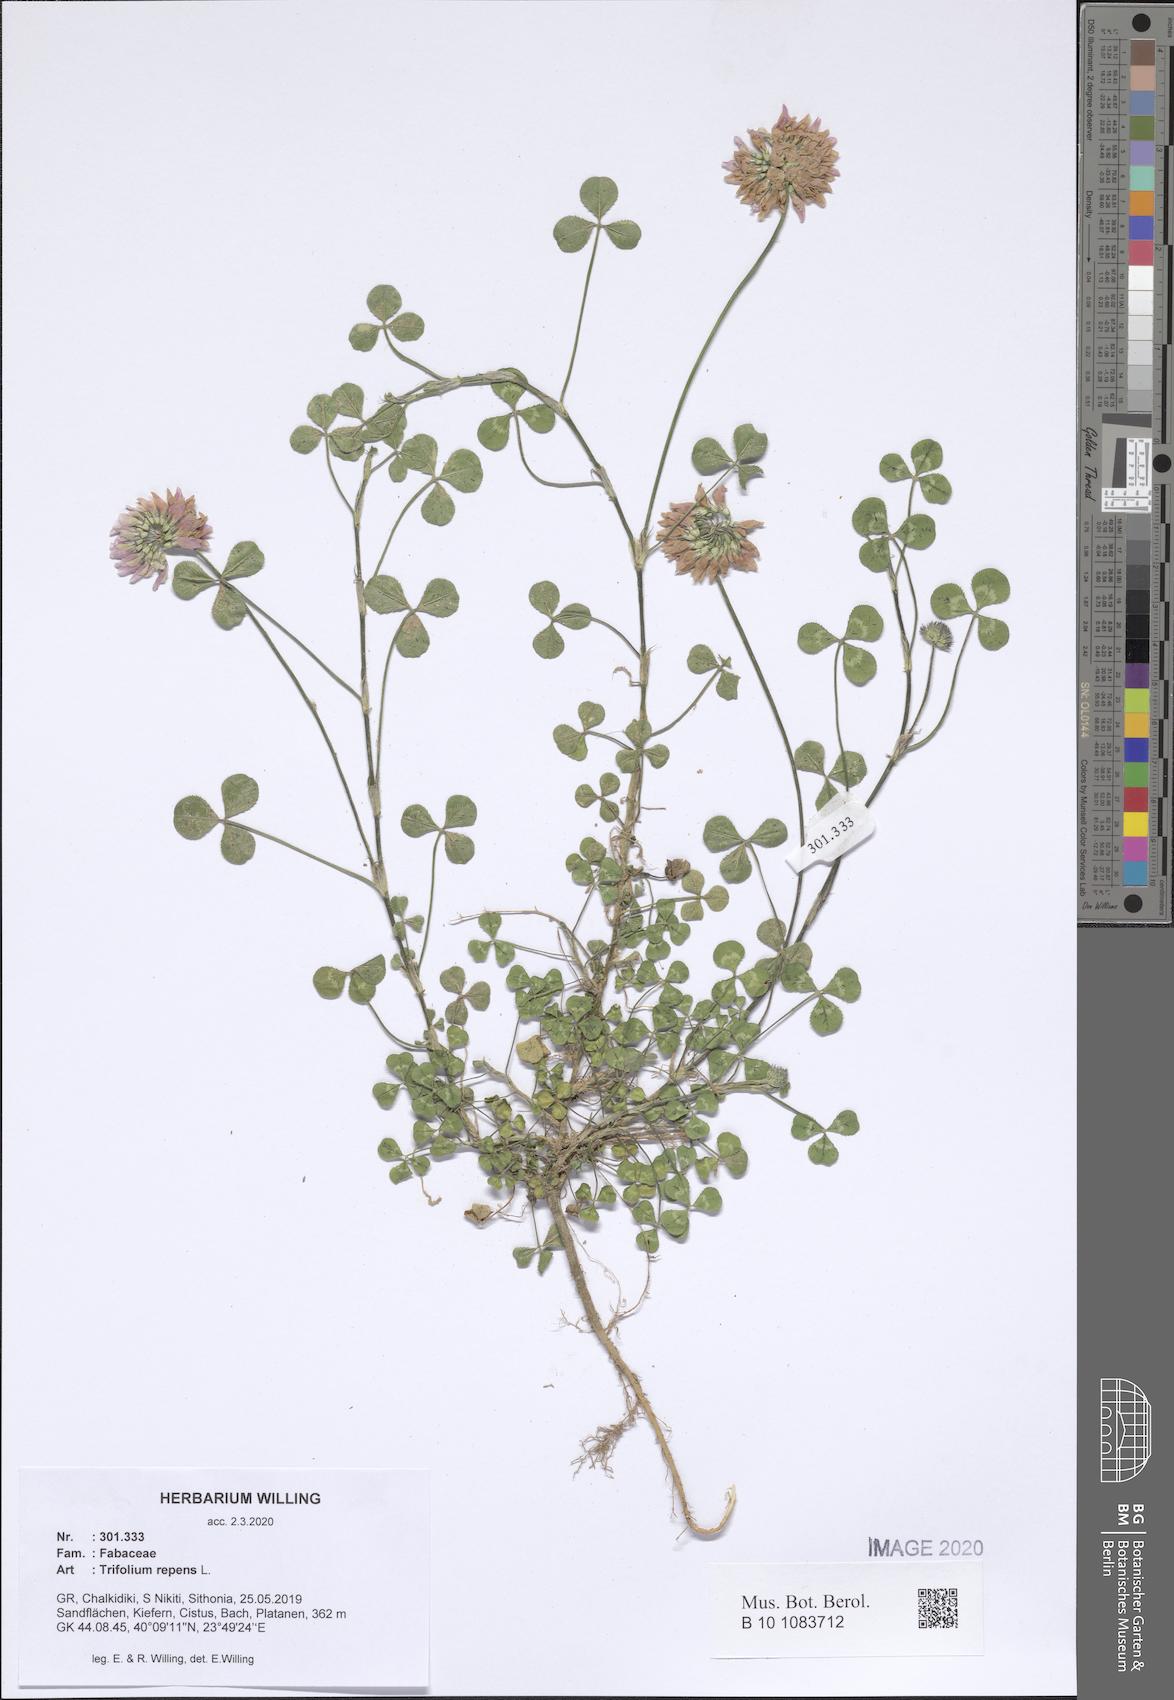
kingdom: Plantae
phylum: Tracheophyta
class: Magnoliopsida
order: Fabales
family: Fabaceae
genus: Trifolium
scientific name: Trifolium repens
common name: White clover
